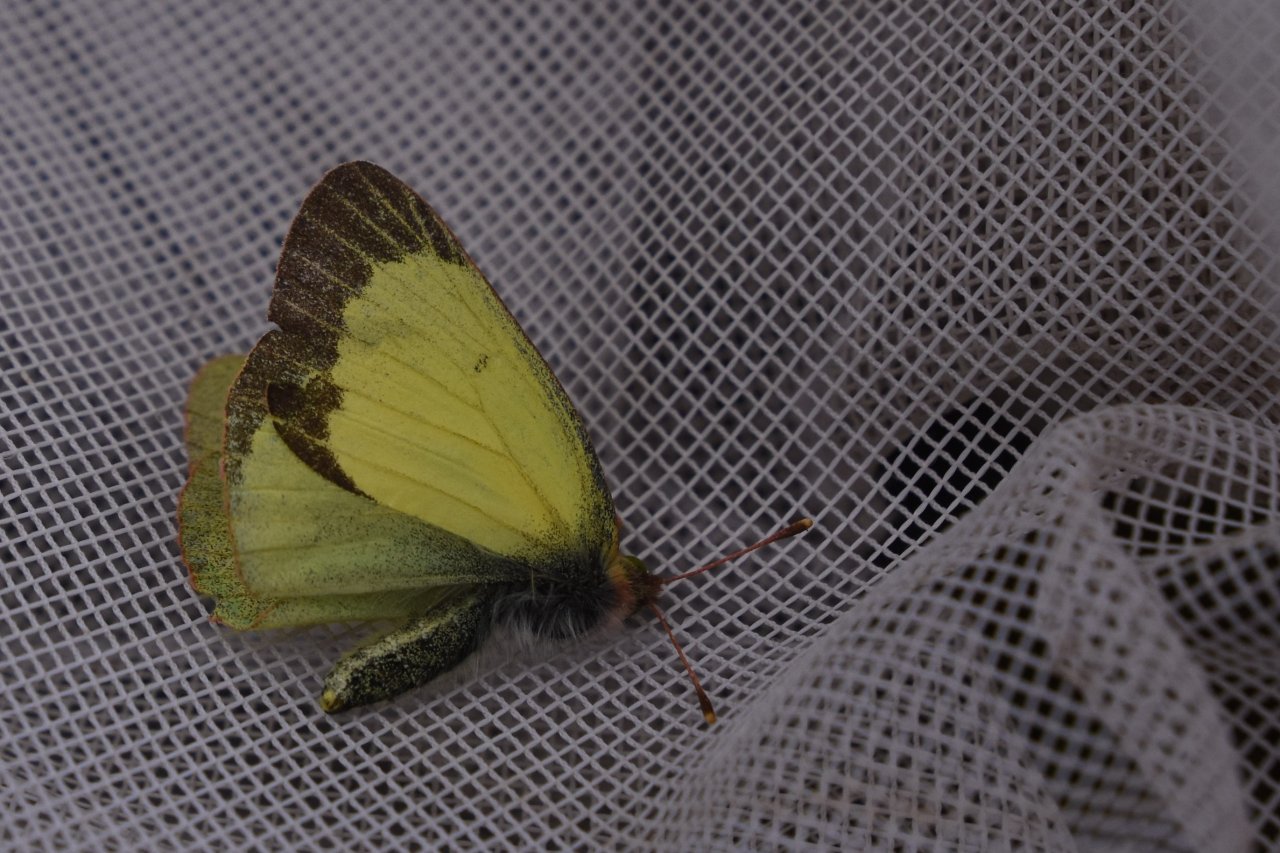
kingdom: Animalia
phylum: Arthropoda
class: Insecta
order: Lepidoptera
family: Pieridae
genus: Colias
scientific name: Colias pelidne
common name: Pelidne Sulphur
